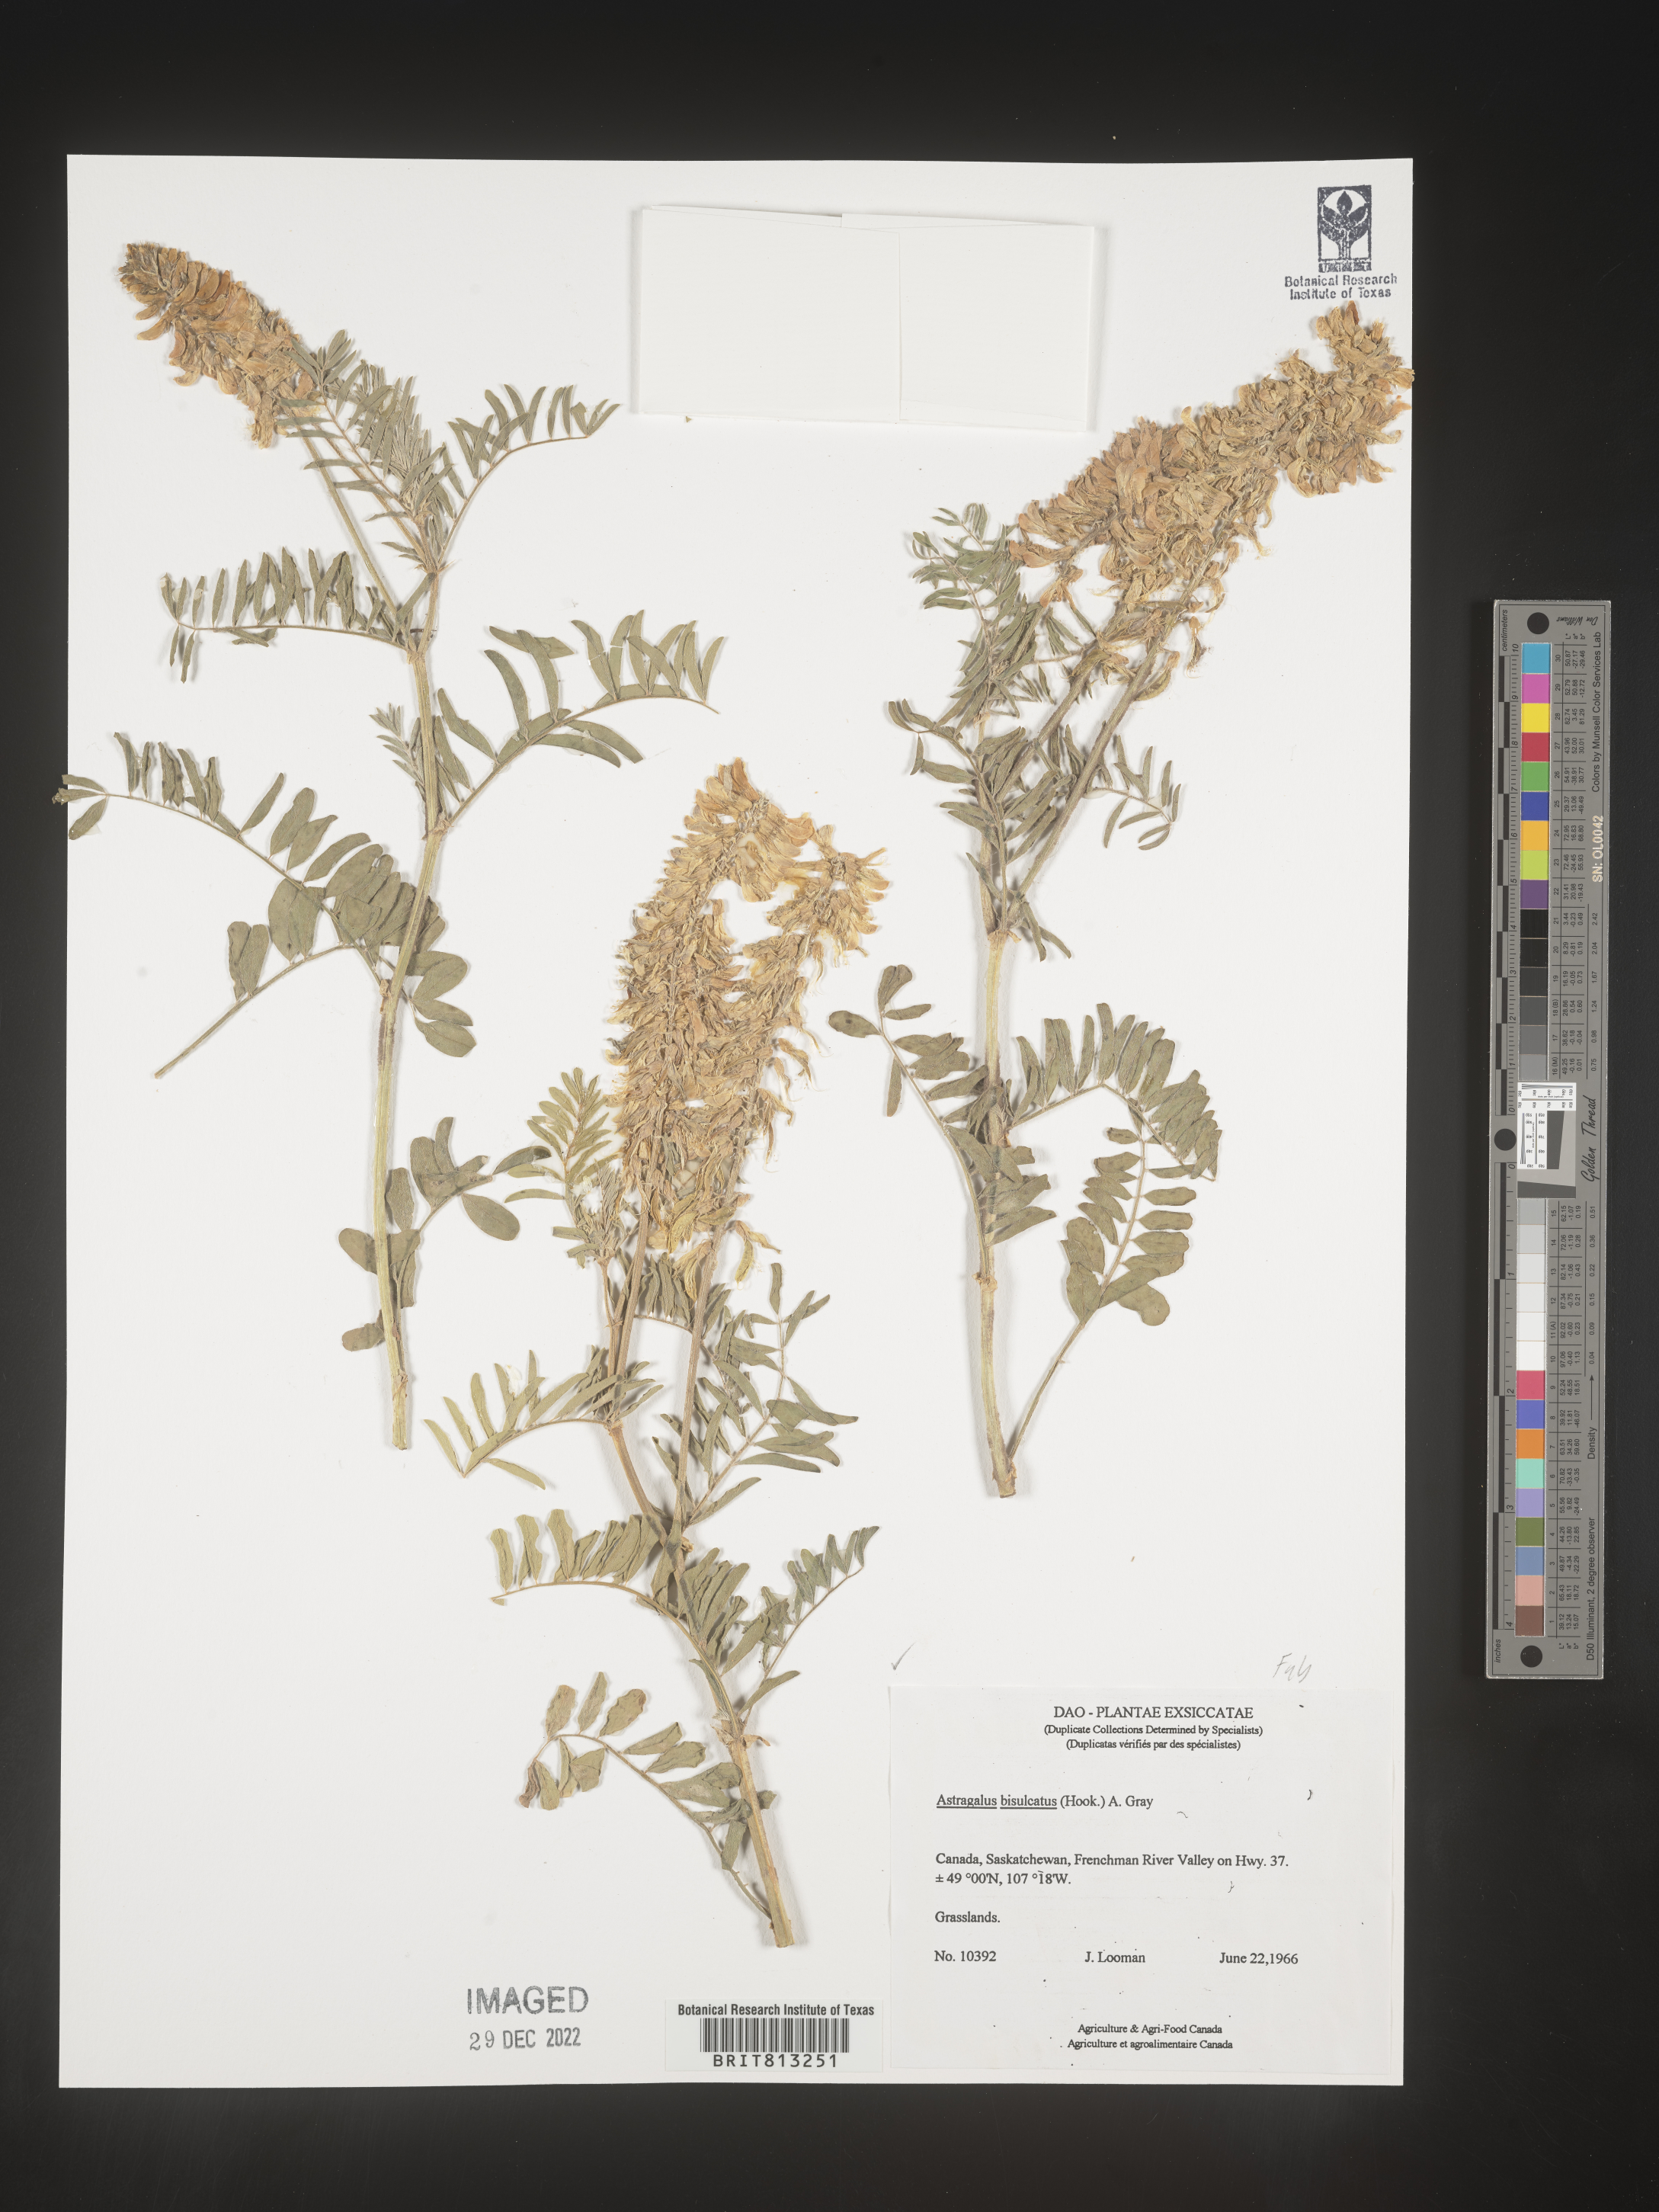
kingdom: Plantae
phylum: Tracheophyta
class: Magnoliopsida
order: Fabales
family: Fabaceae
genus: Astragalus
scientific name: Astragalus bisulcatus
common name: Two-groove milk-vetch
